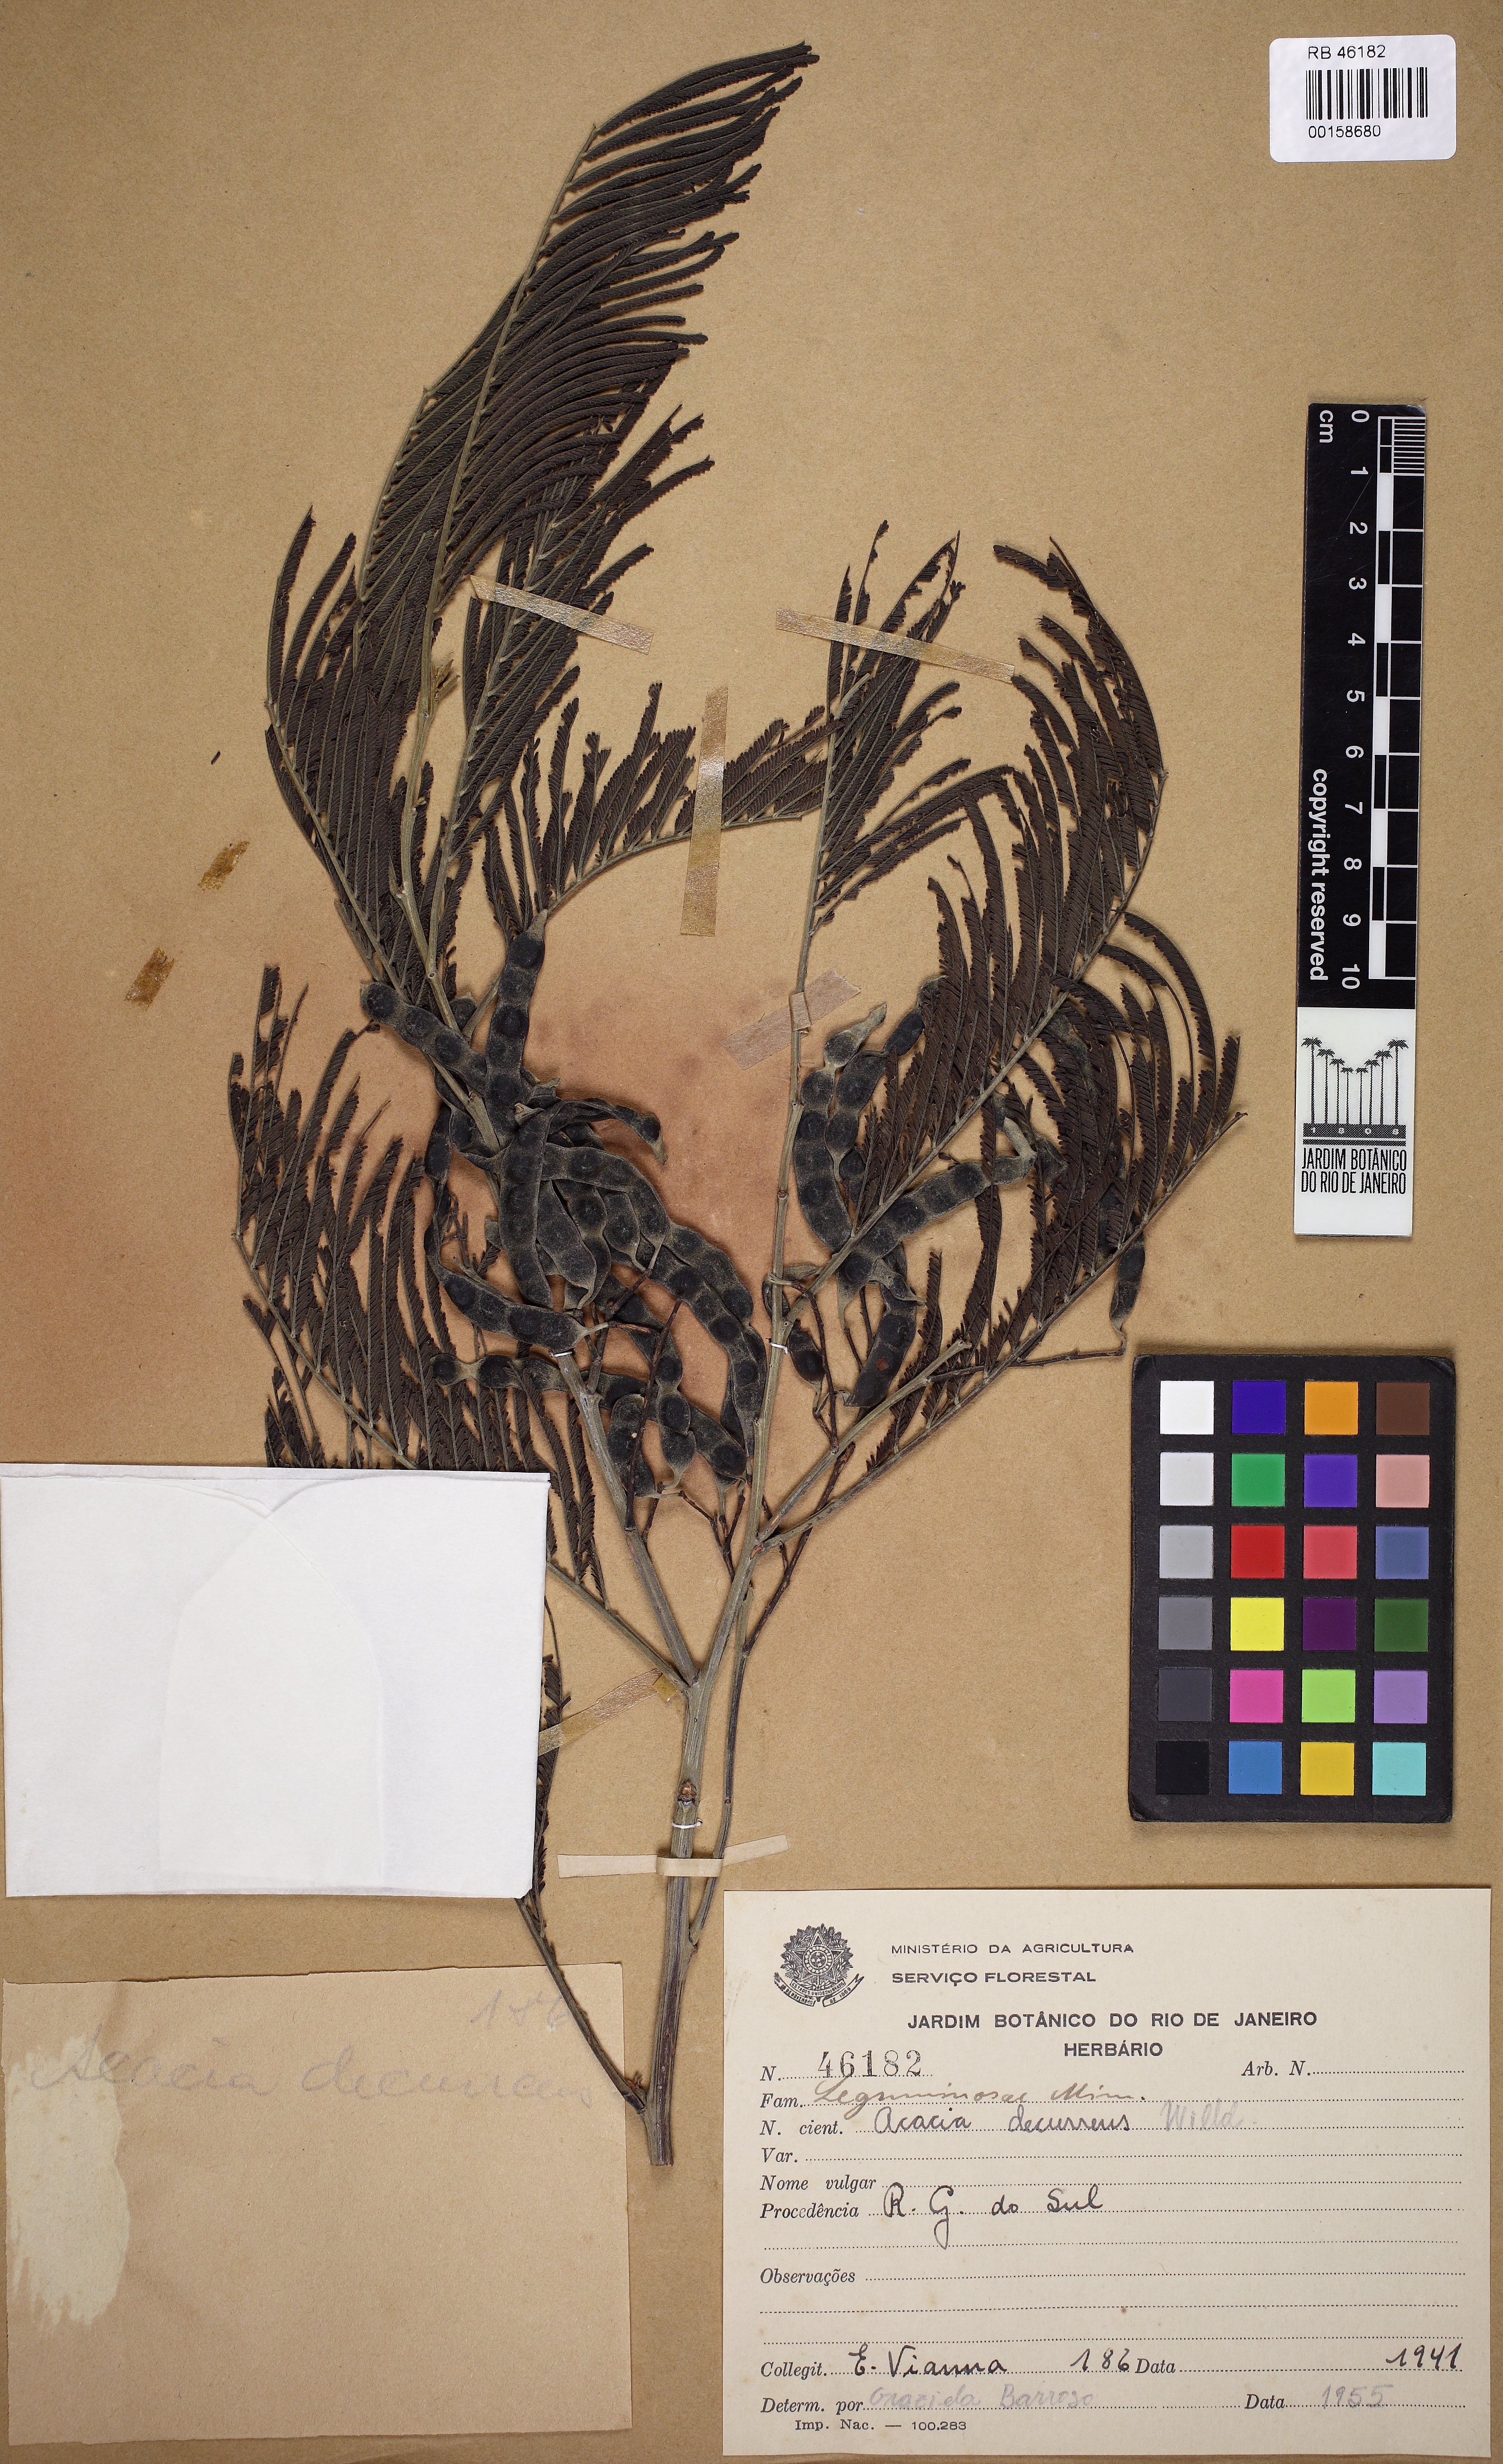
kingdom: Plantae
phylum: Tracheophyta
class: Magnoliopsida
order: Fabales
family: Fabaceae
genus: Acacia
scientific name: Acacia decurrens
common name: Green wattle
